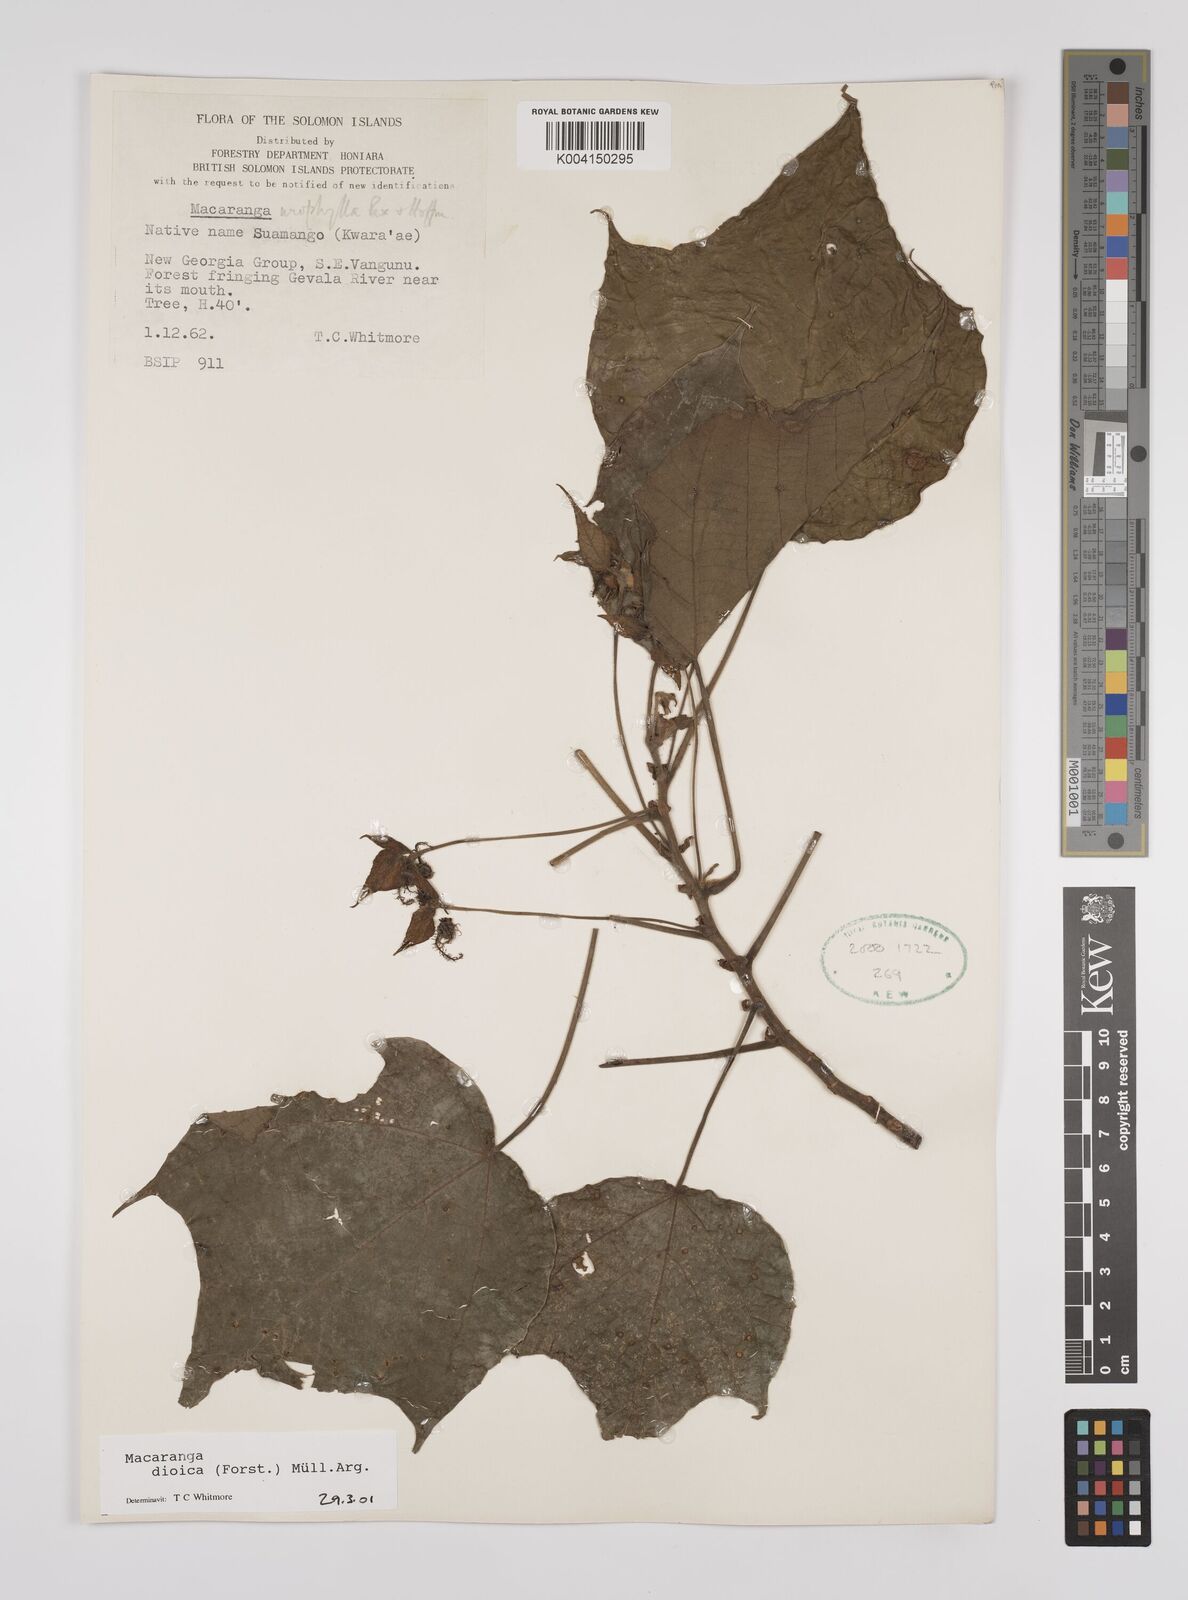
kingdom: Plantae
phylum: Tracheophyta
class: Magnoliopsida
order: Malpighiales
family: Euphorbiaceae
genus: Macaranga
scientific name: Macaranga dioica
